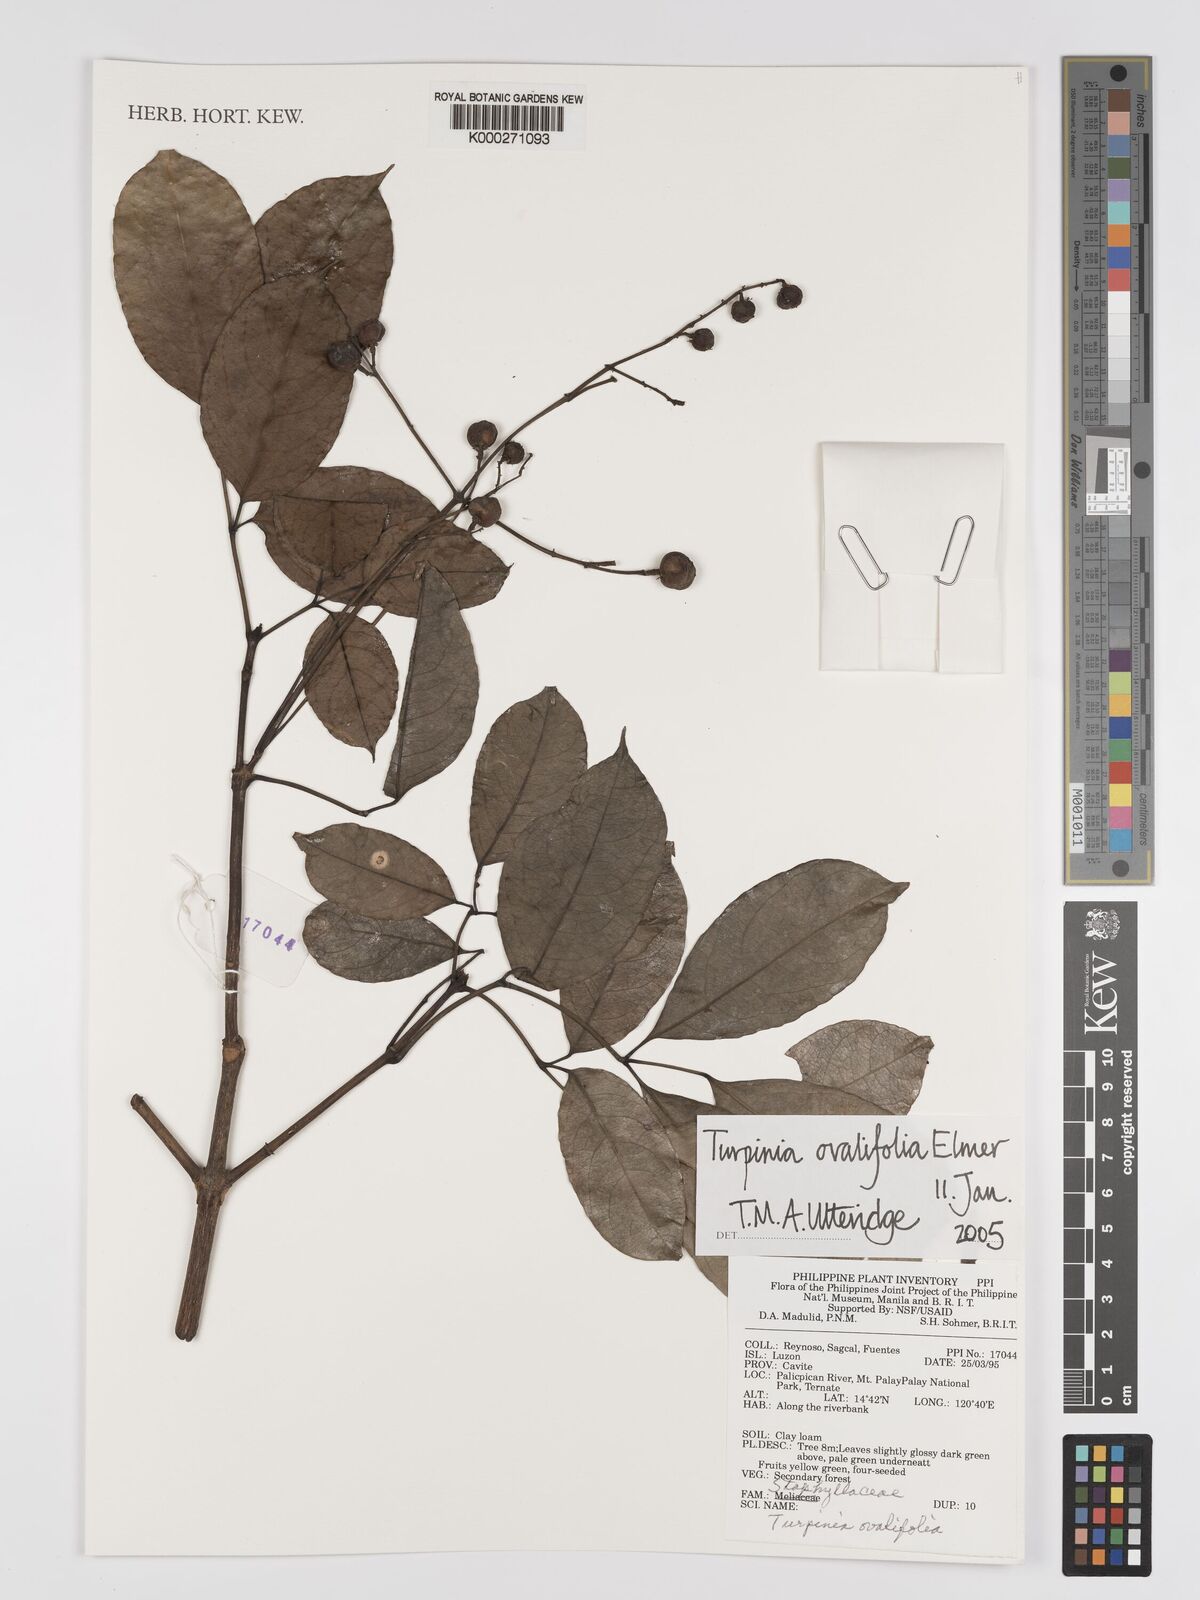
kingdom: Plantae
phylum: Tracheophyta
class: Magnoliopsida
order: Crossosomatales
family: Staphyleaceae
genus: Dalrympelea
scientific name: Dalrympelea trifoliata
